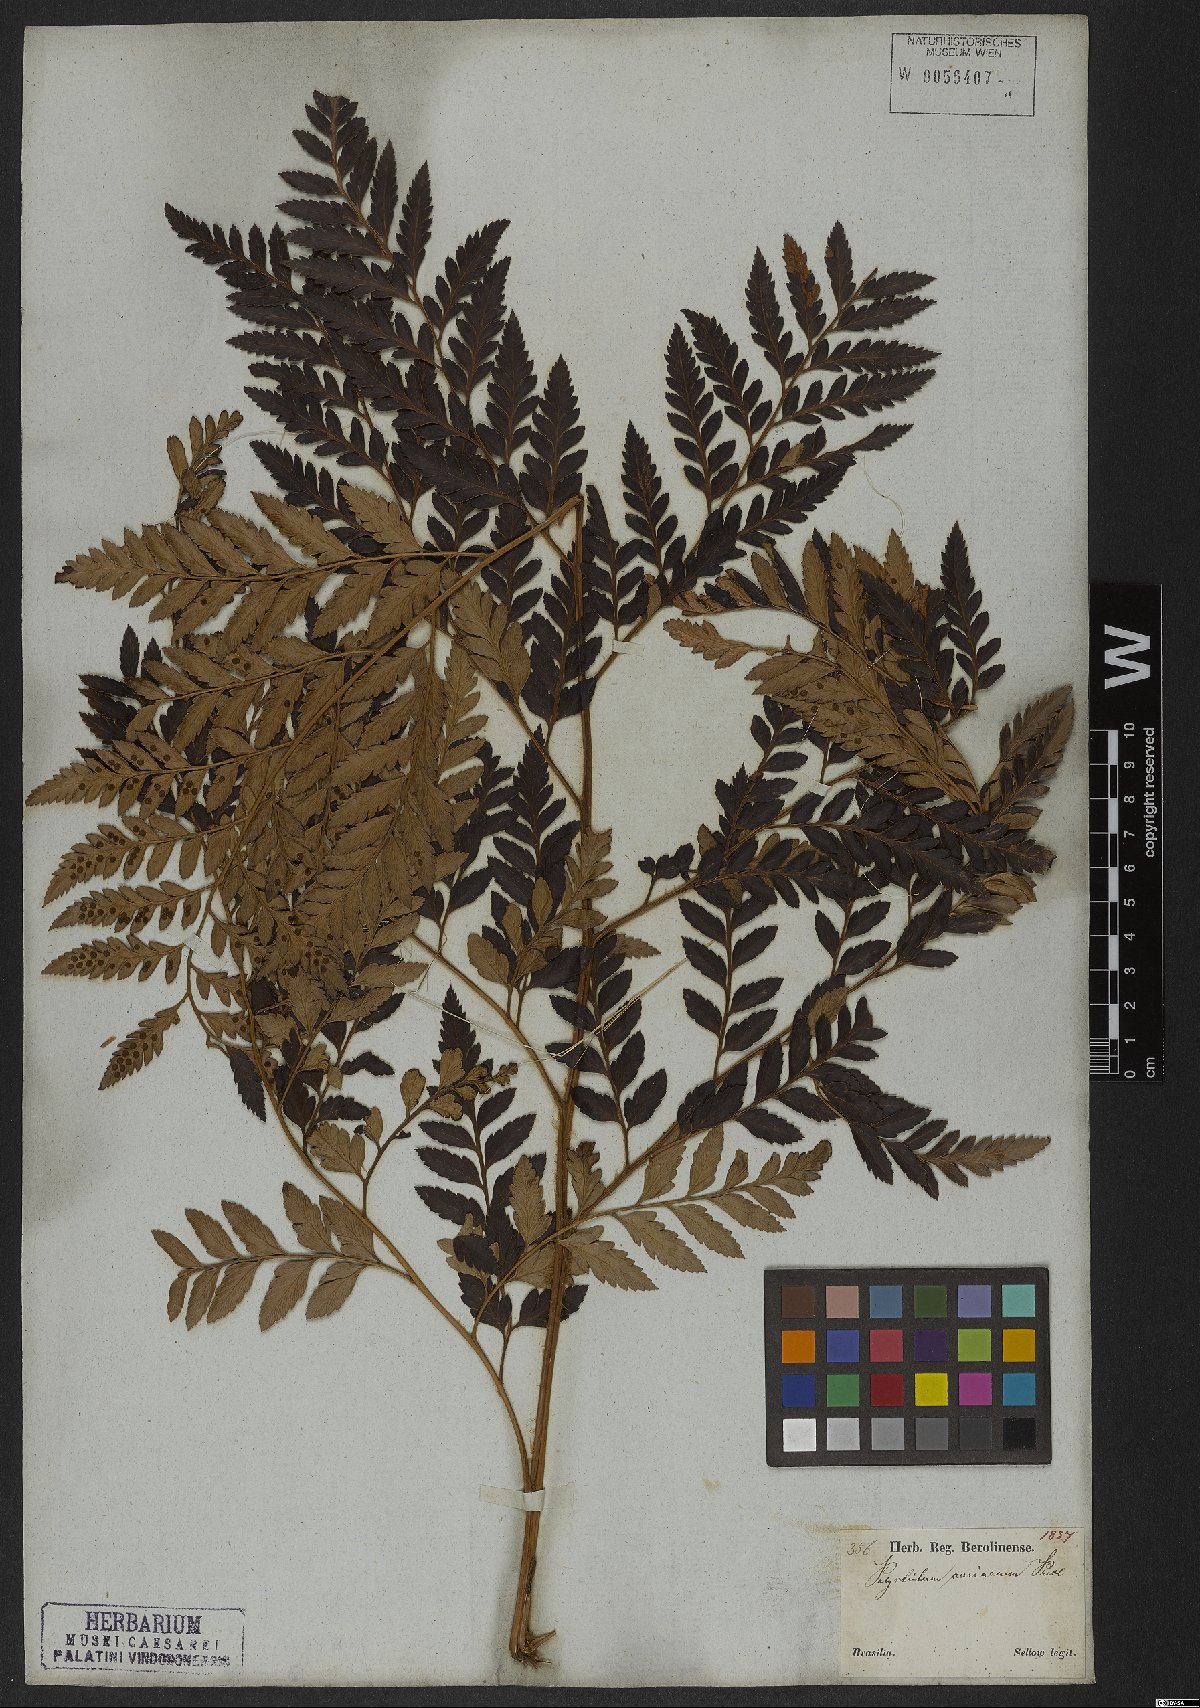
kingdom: Plantae
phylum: Tracheophyta
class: Polypodiopsida
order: Polypodiales
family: Dryopteridaceae
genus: Rumohra
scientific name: Rumohra adiantiformis
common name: Leather fern
